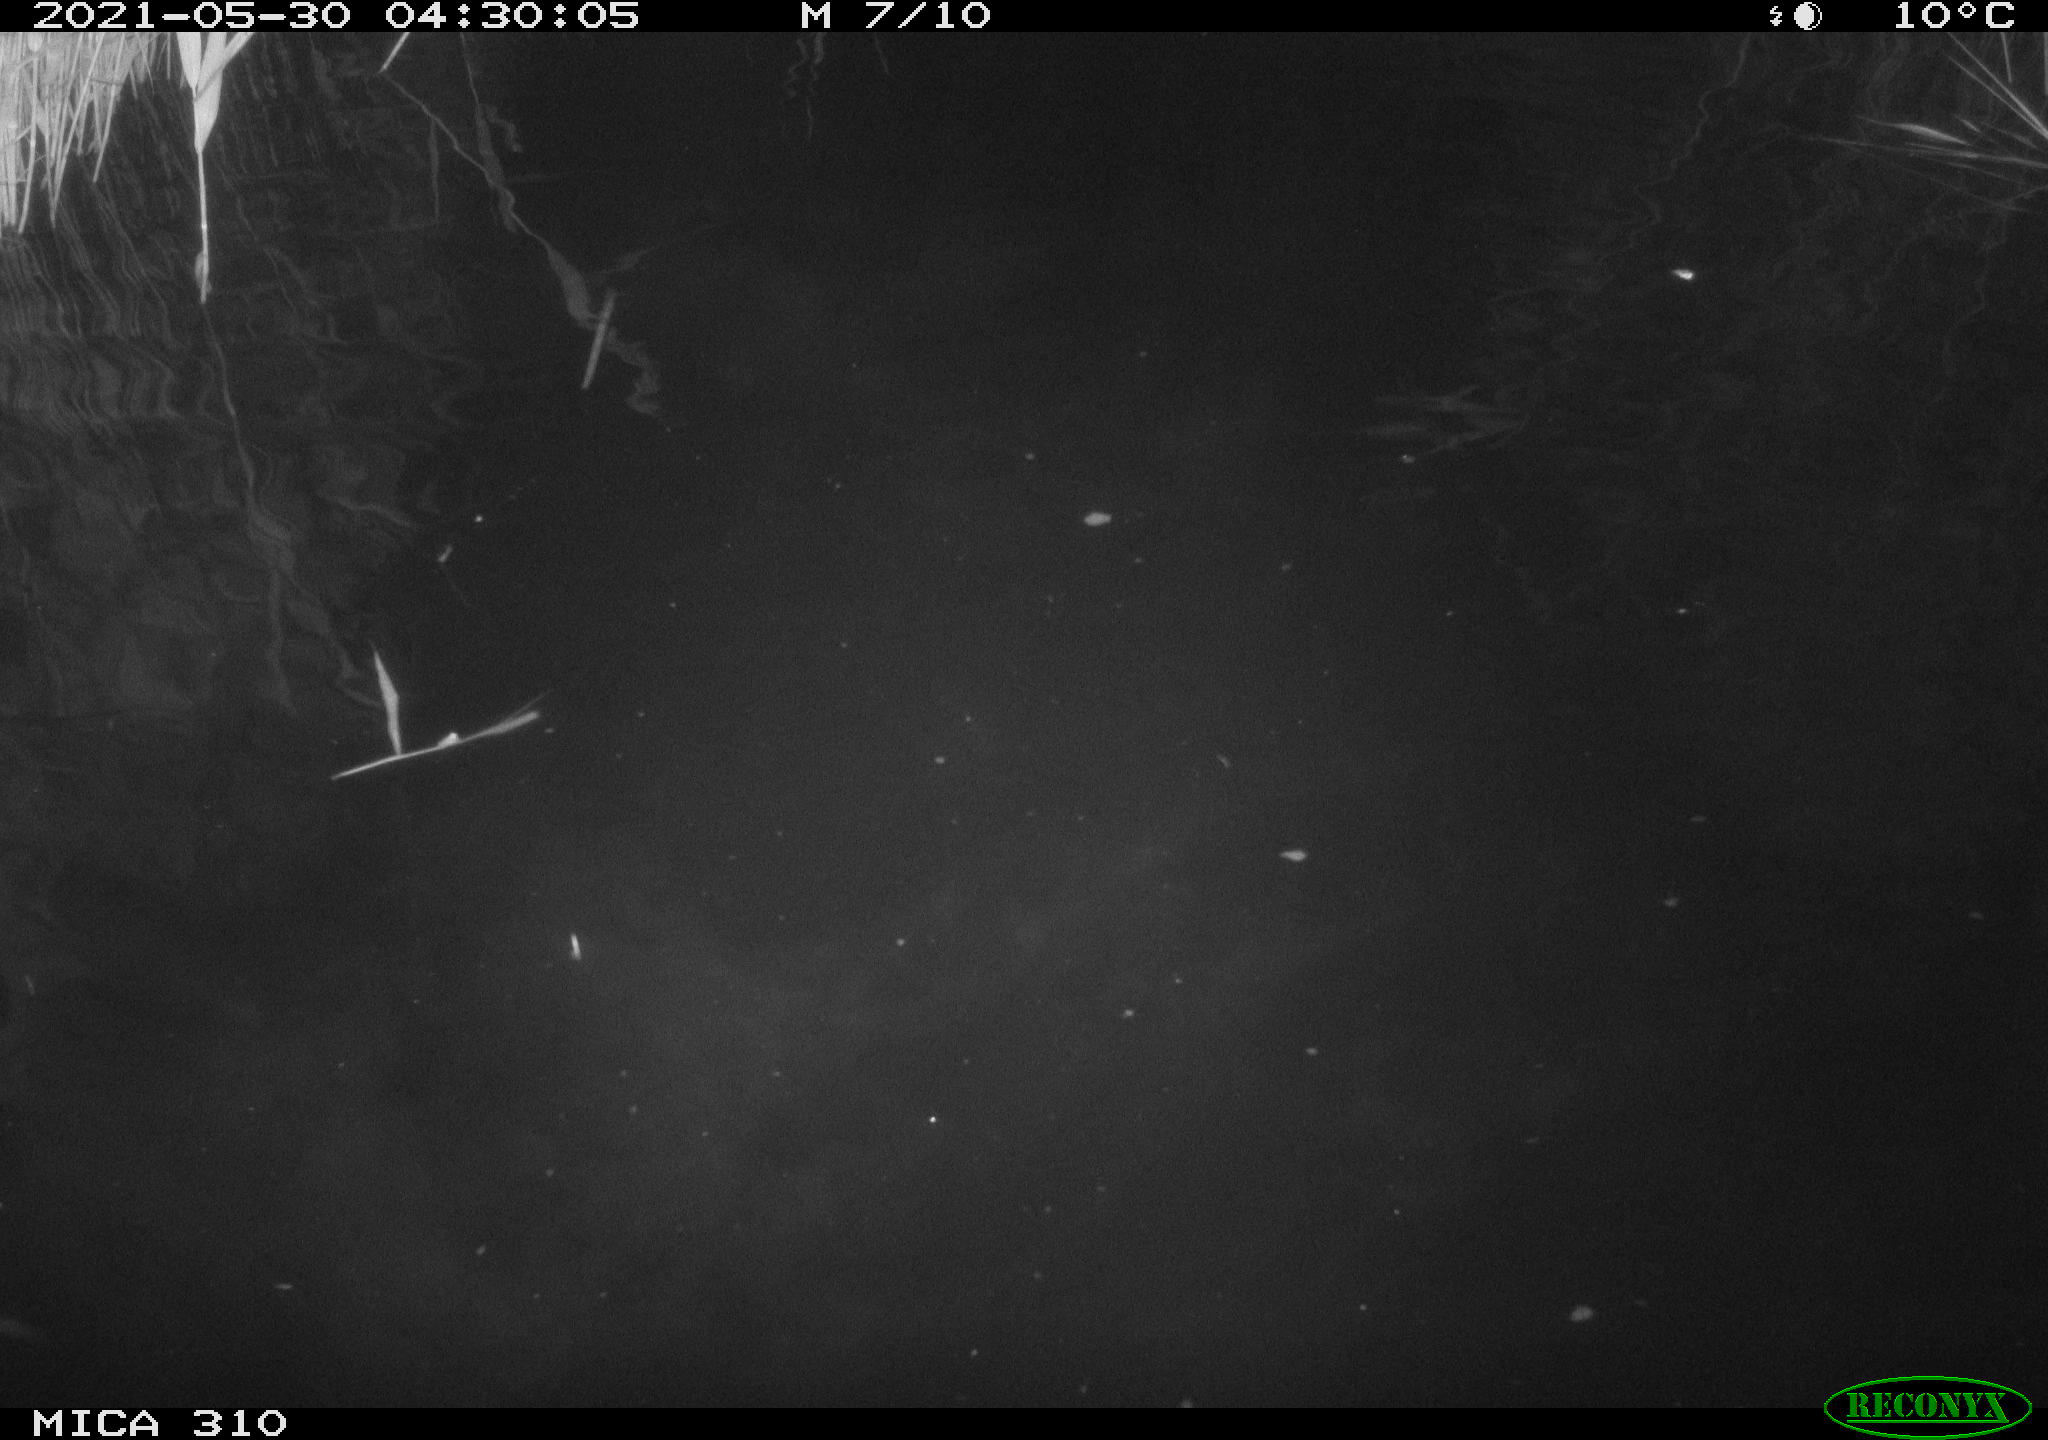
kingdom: Animalia
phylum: Chordata
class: Mammalia
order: Rodentia
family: Cricetidae
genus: Ondatra
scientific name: Ondatra zibethicus
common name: Muskrat
